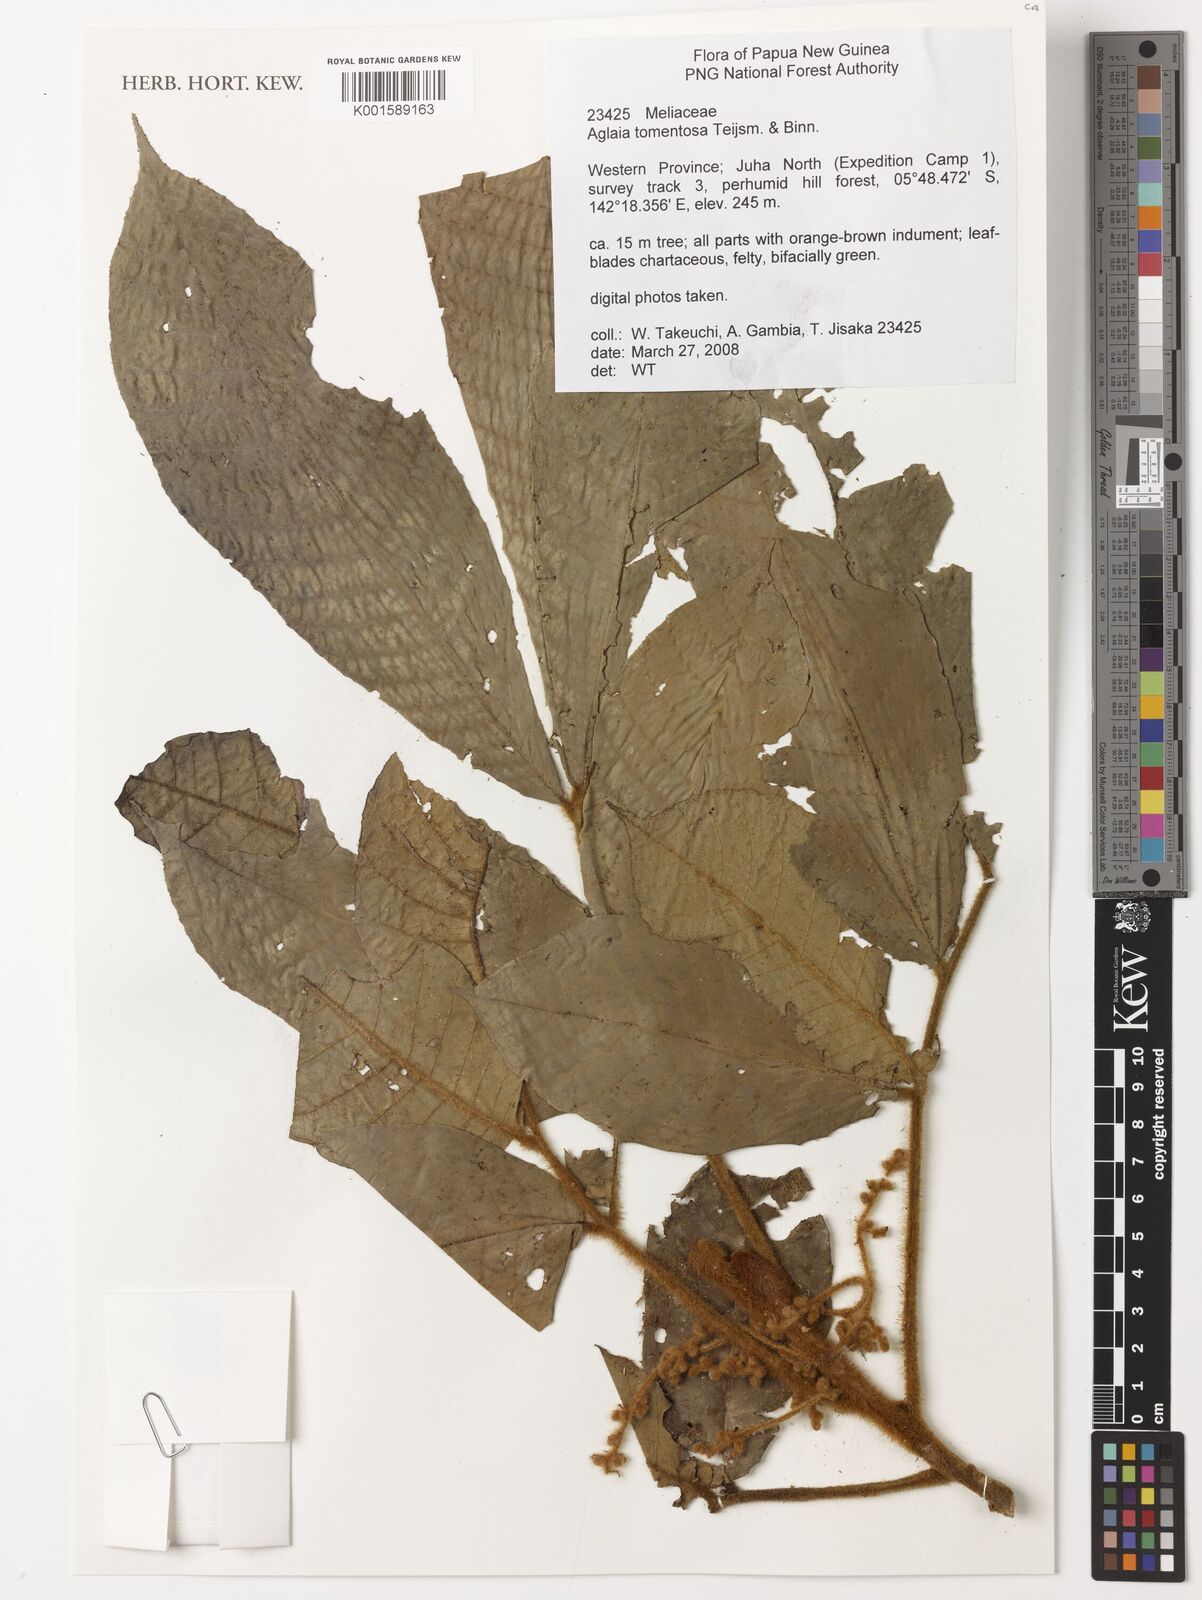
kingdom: Plantae
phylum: Tracheophyta
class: Magnoliopsida
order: Sapindales
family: Meliaceae
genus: Aglaia
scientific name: Aglaia tomentosa
